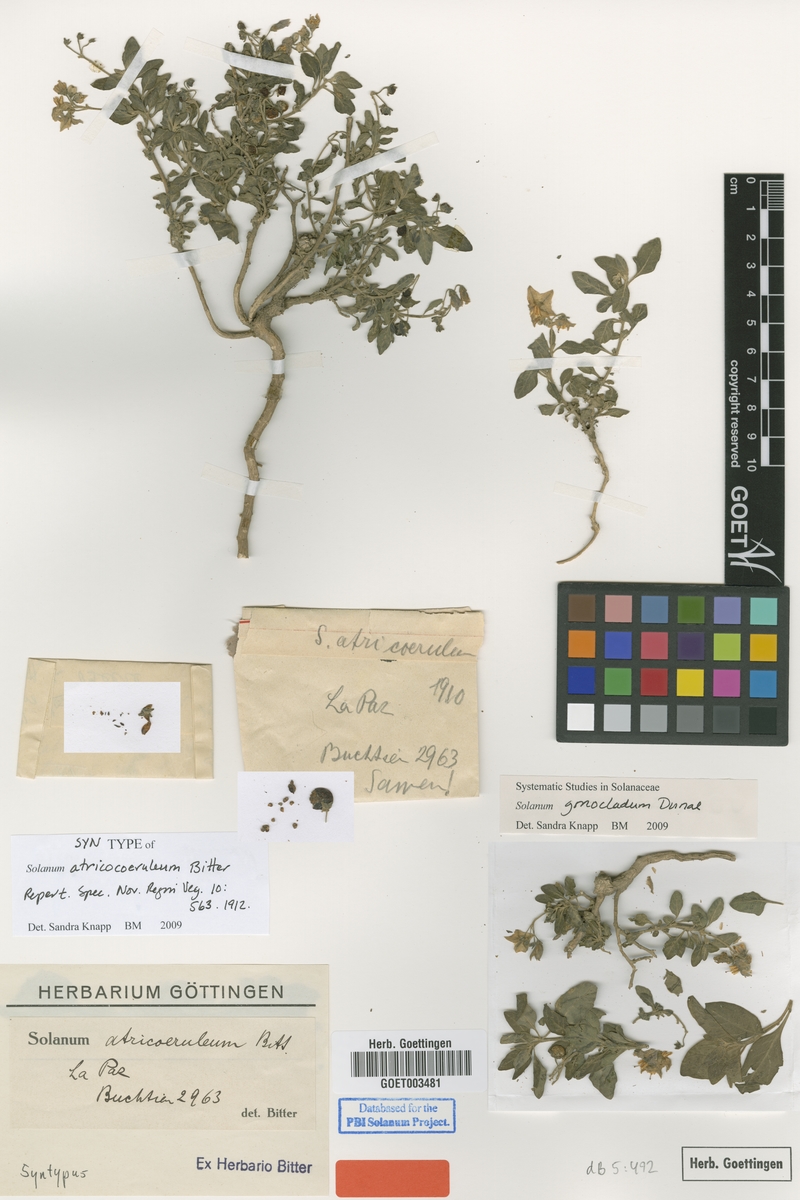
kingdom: Plantae
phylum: Tracheophyta
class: Magnoliopsida
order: Solanales
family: Solanaceae
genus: Solanum
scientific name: Solanum gonocladum
